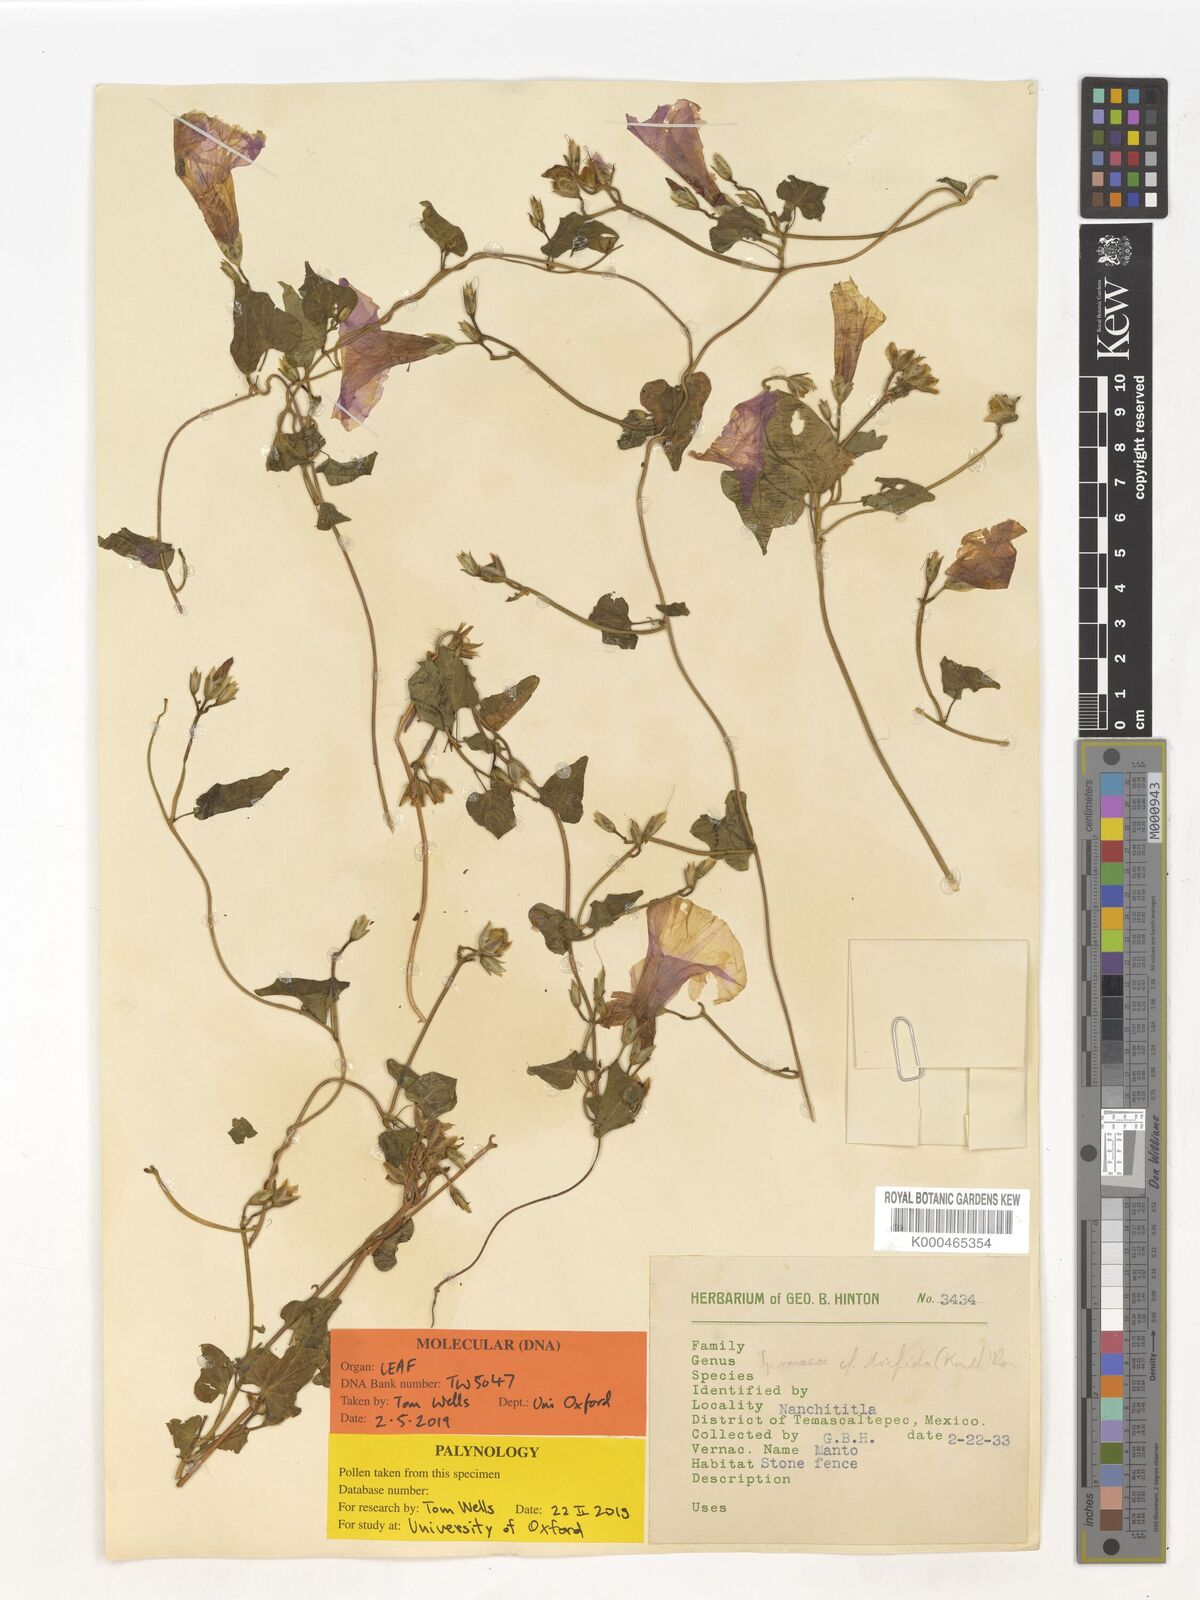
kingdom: Plantae
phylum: Tracheophyta
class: Magnoliopsida
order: Solanales
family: Convolvulaceae
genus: Ipomoea
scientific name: Ipomoea trifida
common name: Cotton morningglory
